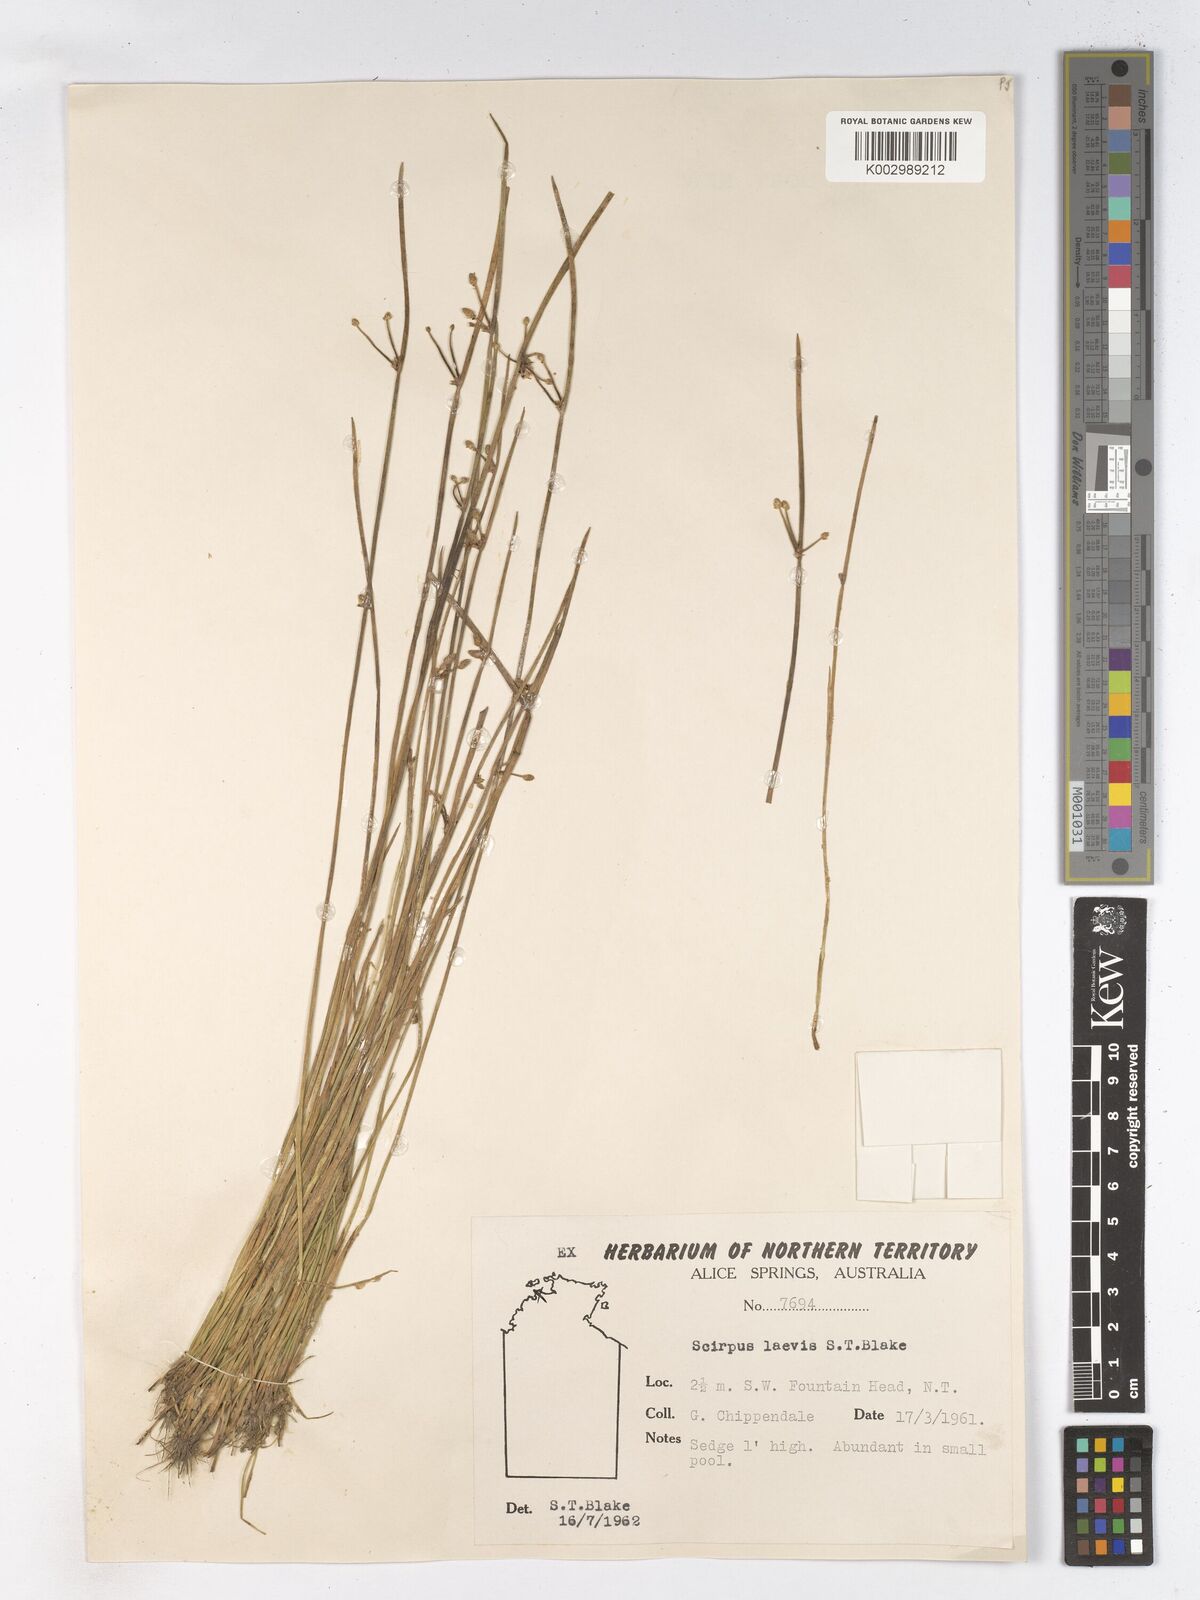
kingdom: Plantae
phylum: Tracheophyta
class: Liliopsida
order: Poales
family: Cyperaceae
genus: Schoenoplectiella
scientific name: Schoenoplectiella laevis
